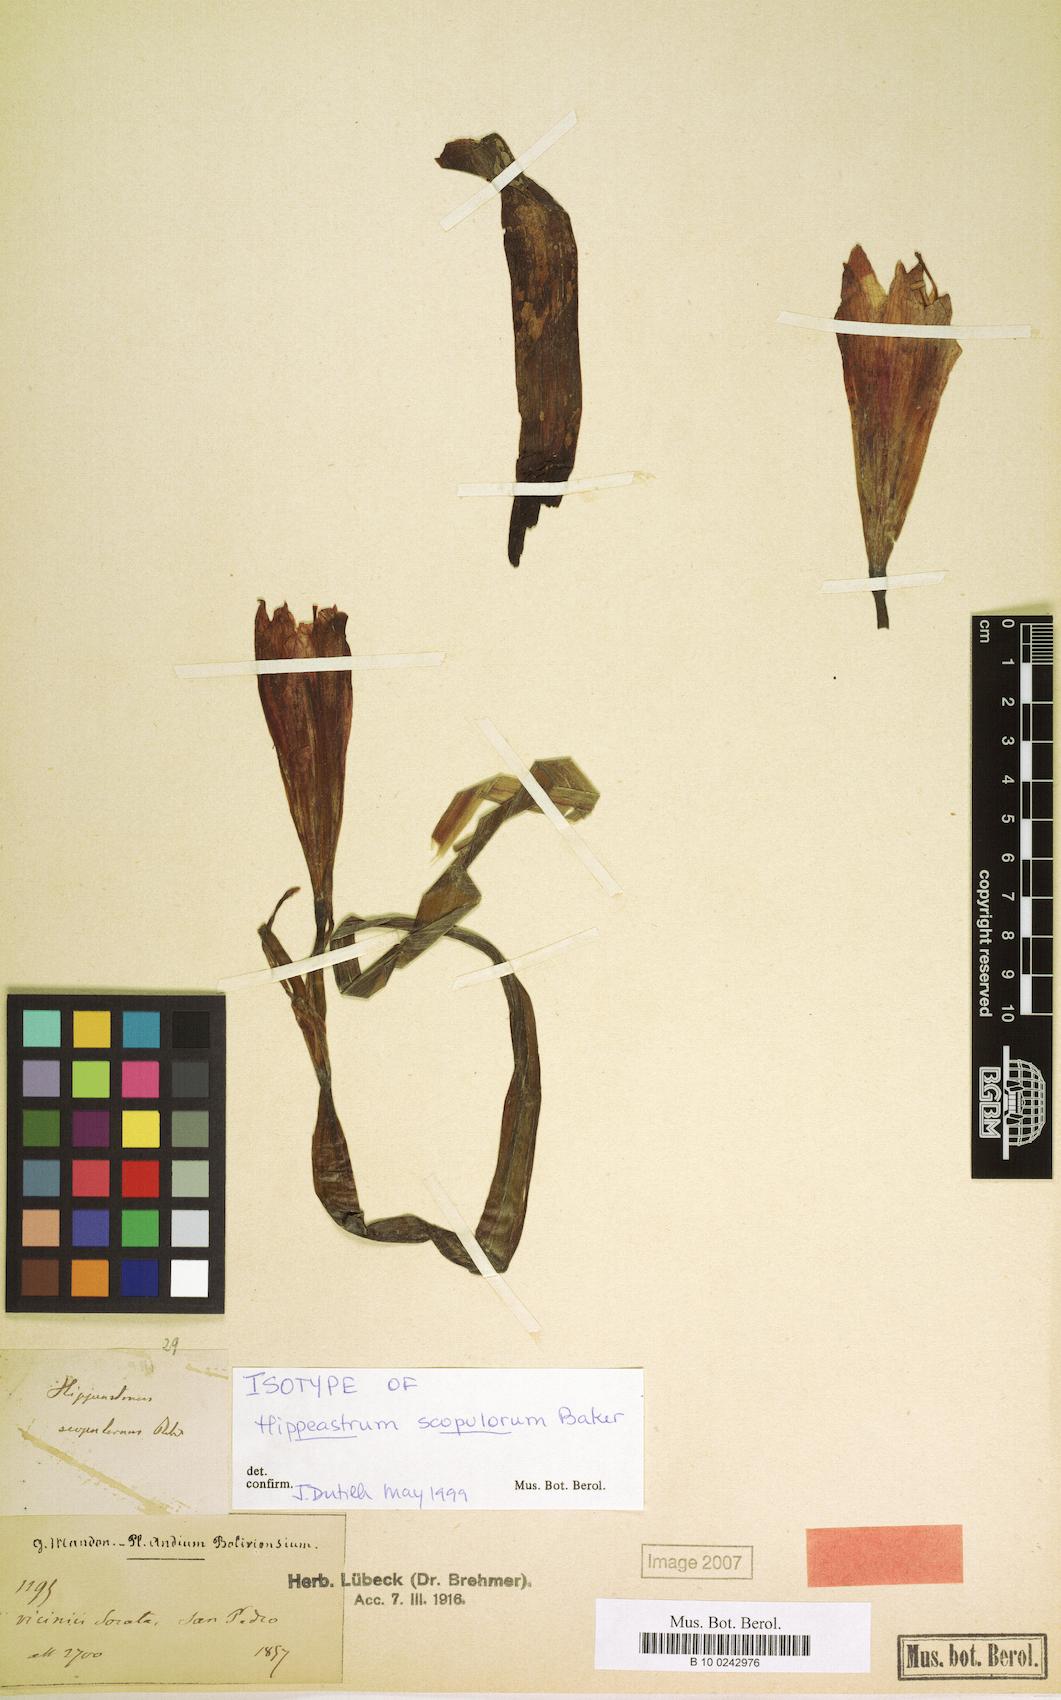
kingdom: Plantae
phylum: Tracheophyta
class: Liliopsida
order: Asparagales
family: Amaryllidaceae
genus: Hippeastrum
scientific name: Hippeastrum scopulorum
